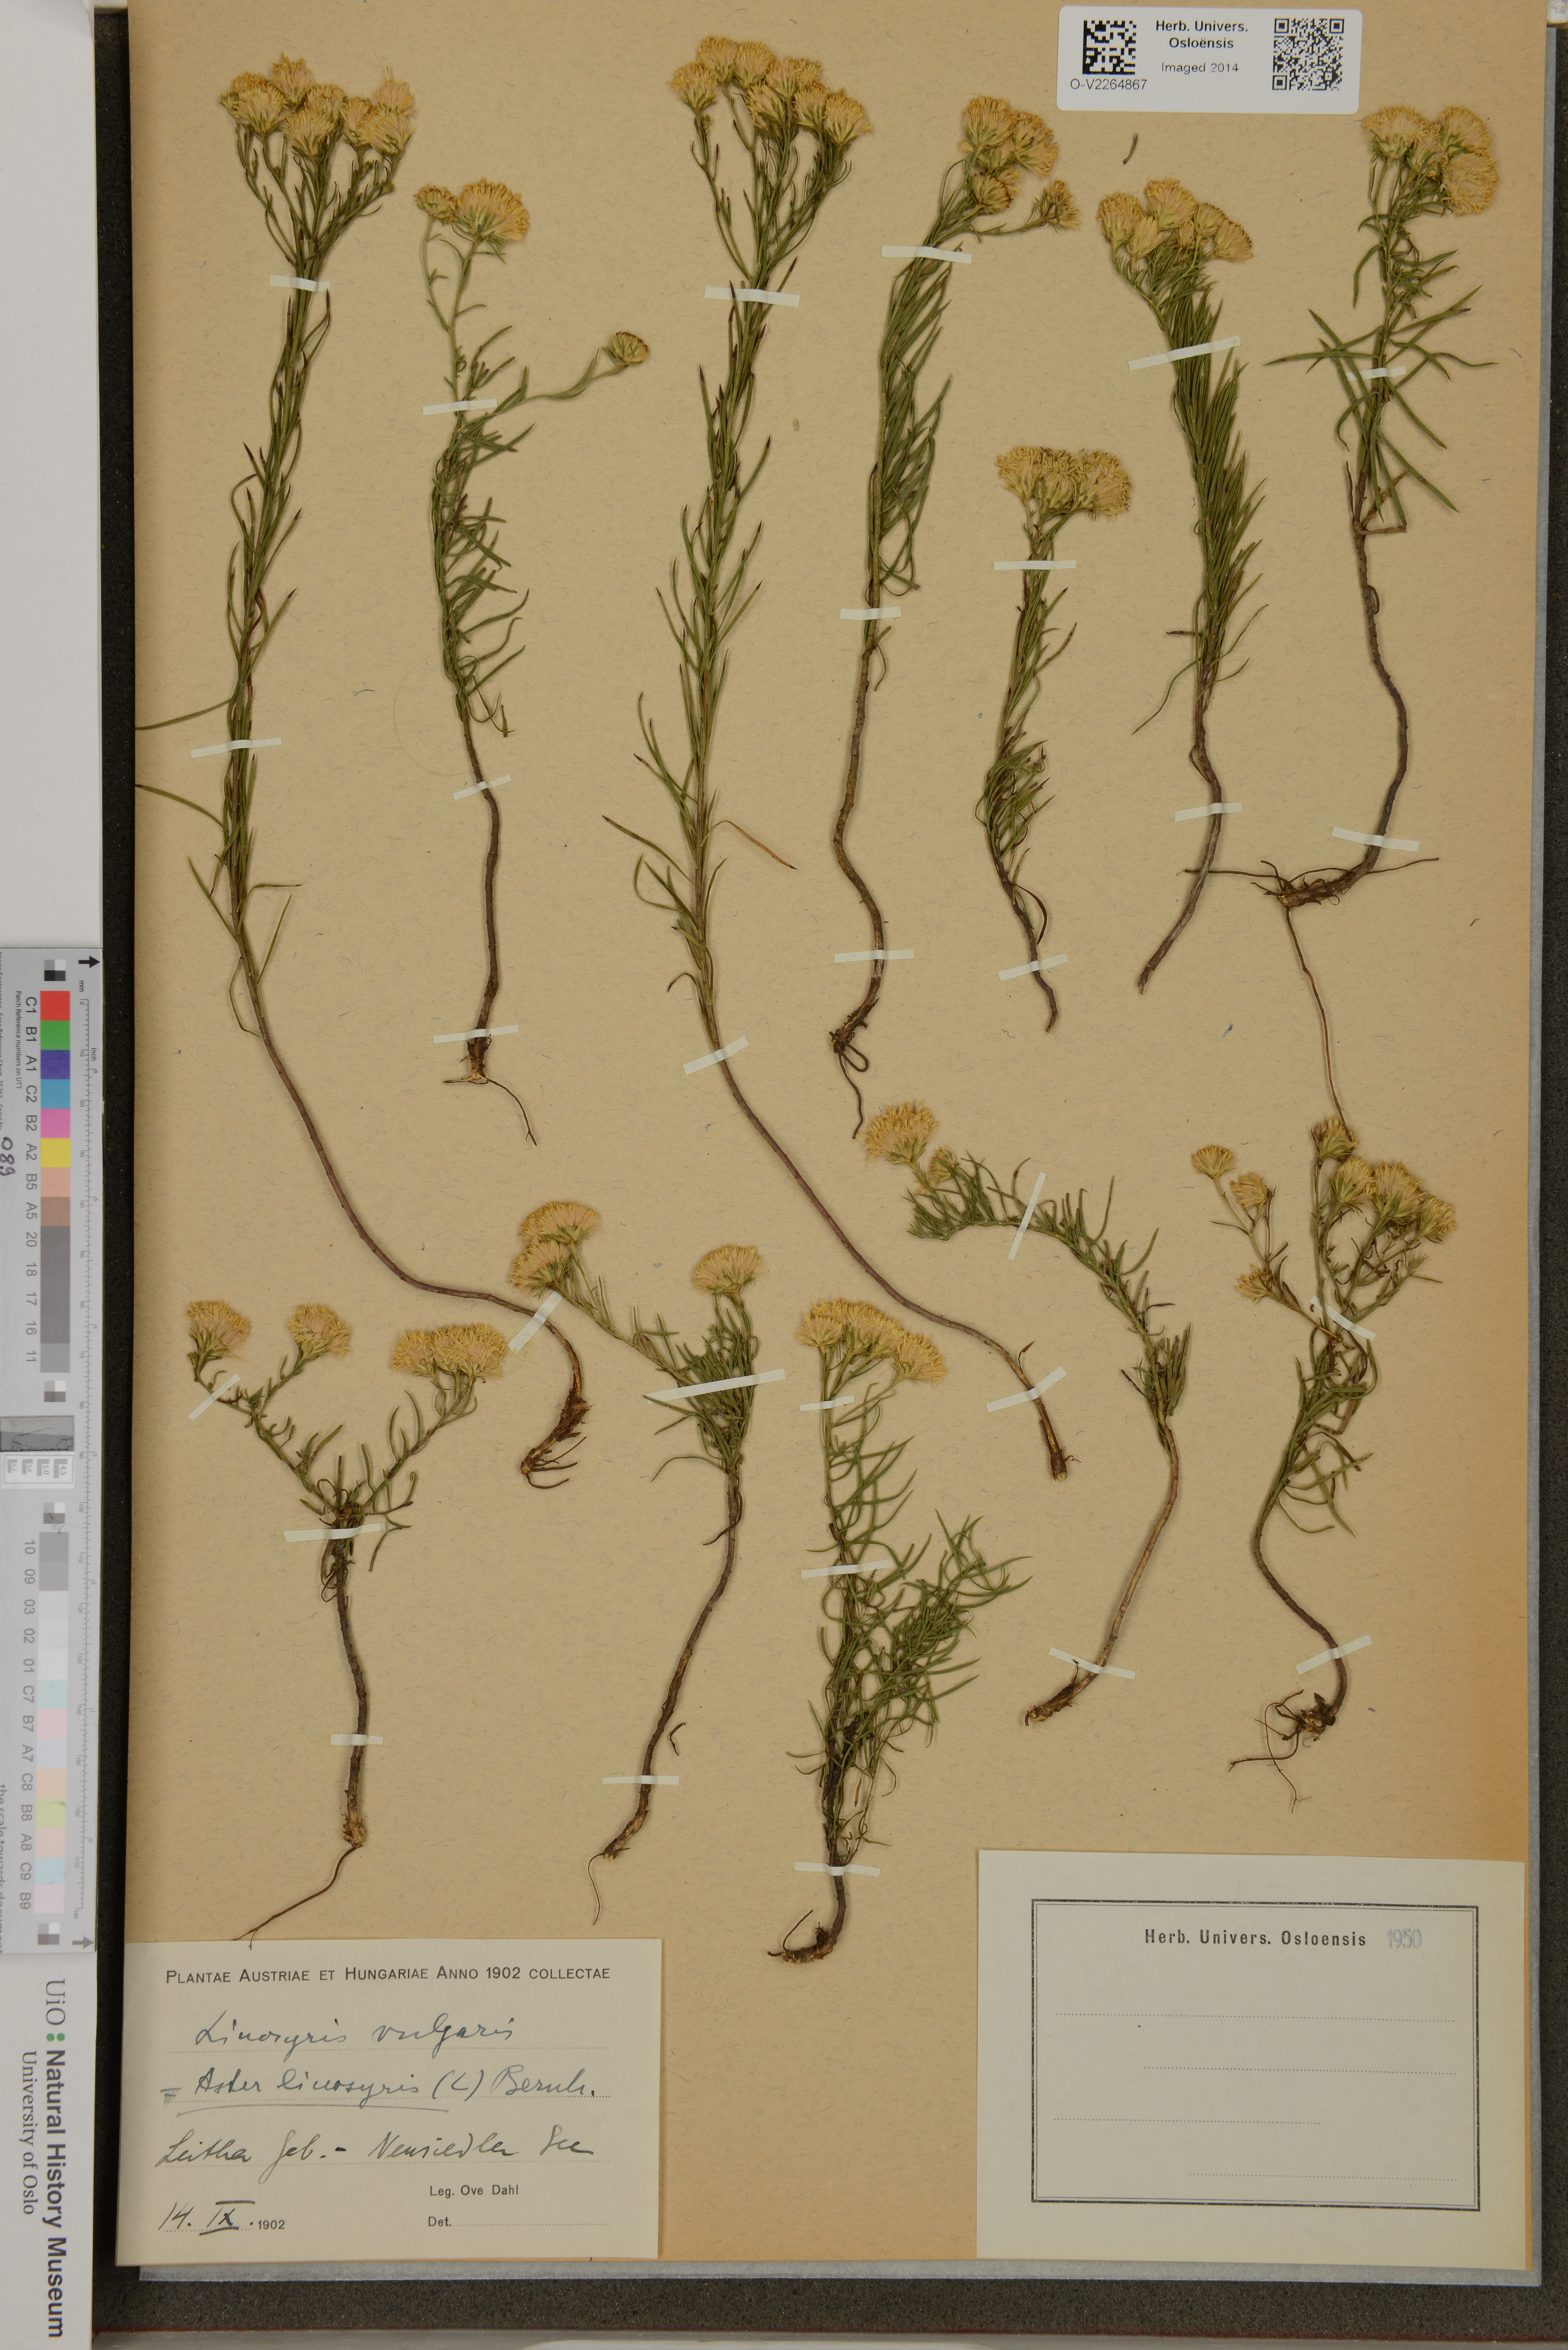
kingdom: Plantae
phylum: Tracheophyta
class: Magnoliopsida
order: Asterales
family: Asteraceae
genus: Galatella
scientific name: Galatella linosyris
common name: Goldilocks aster
